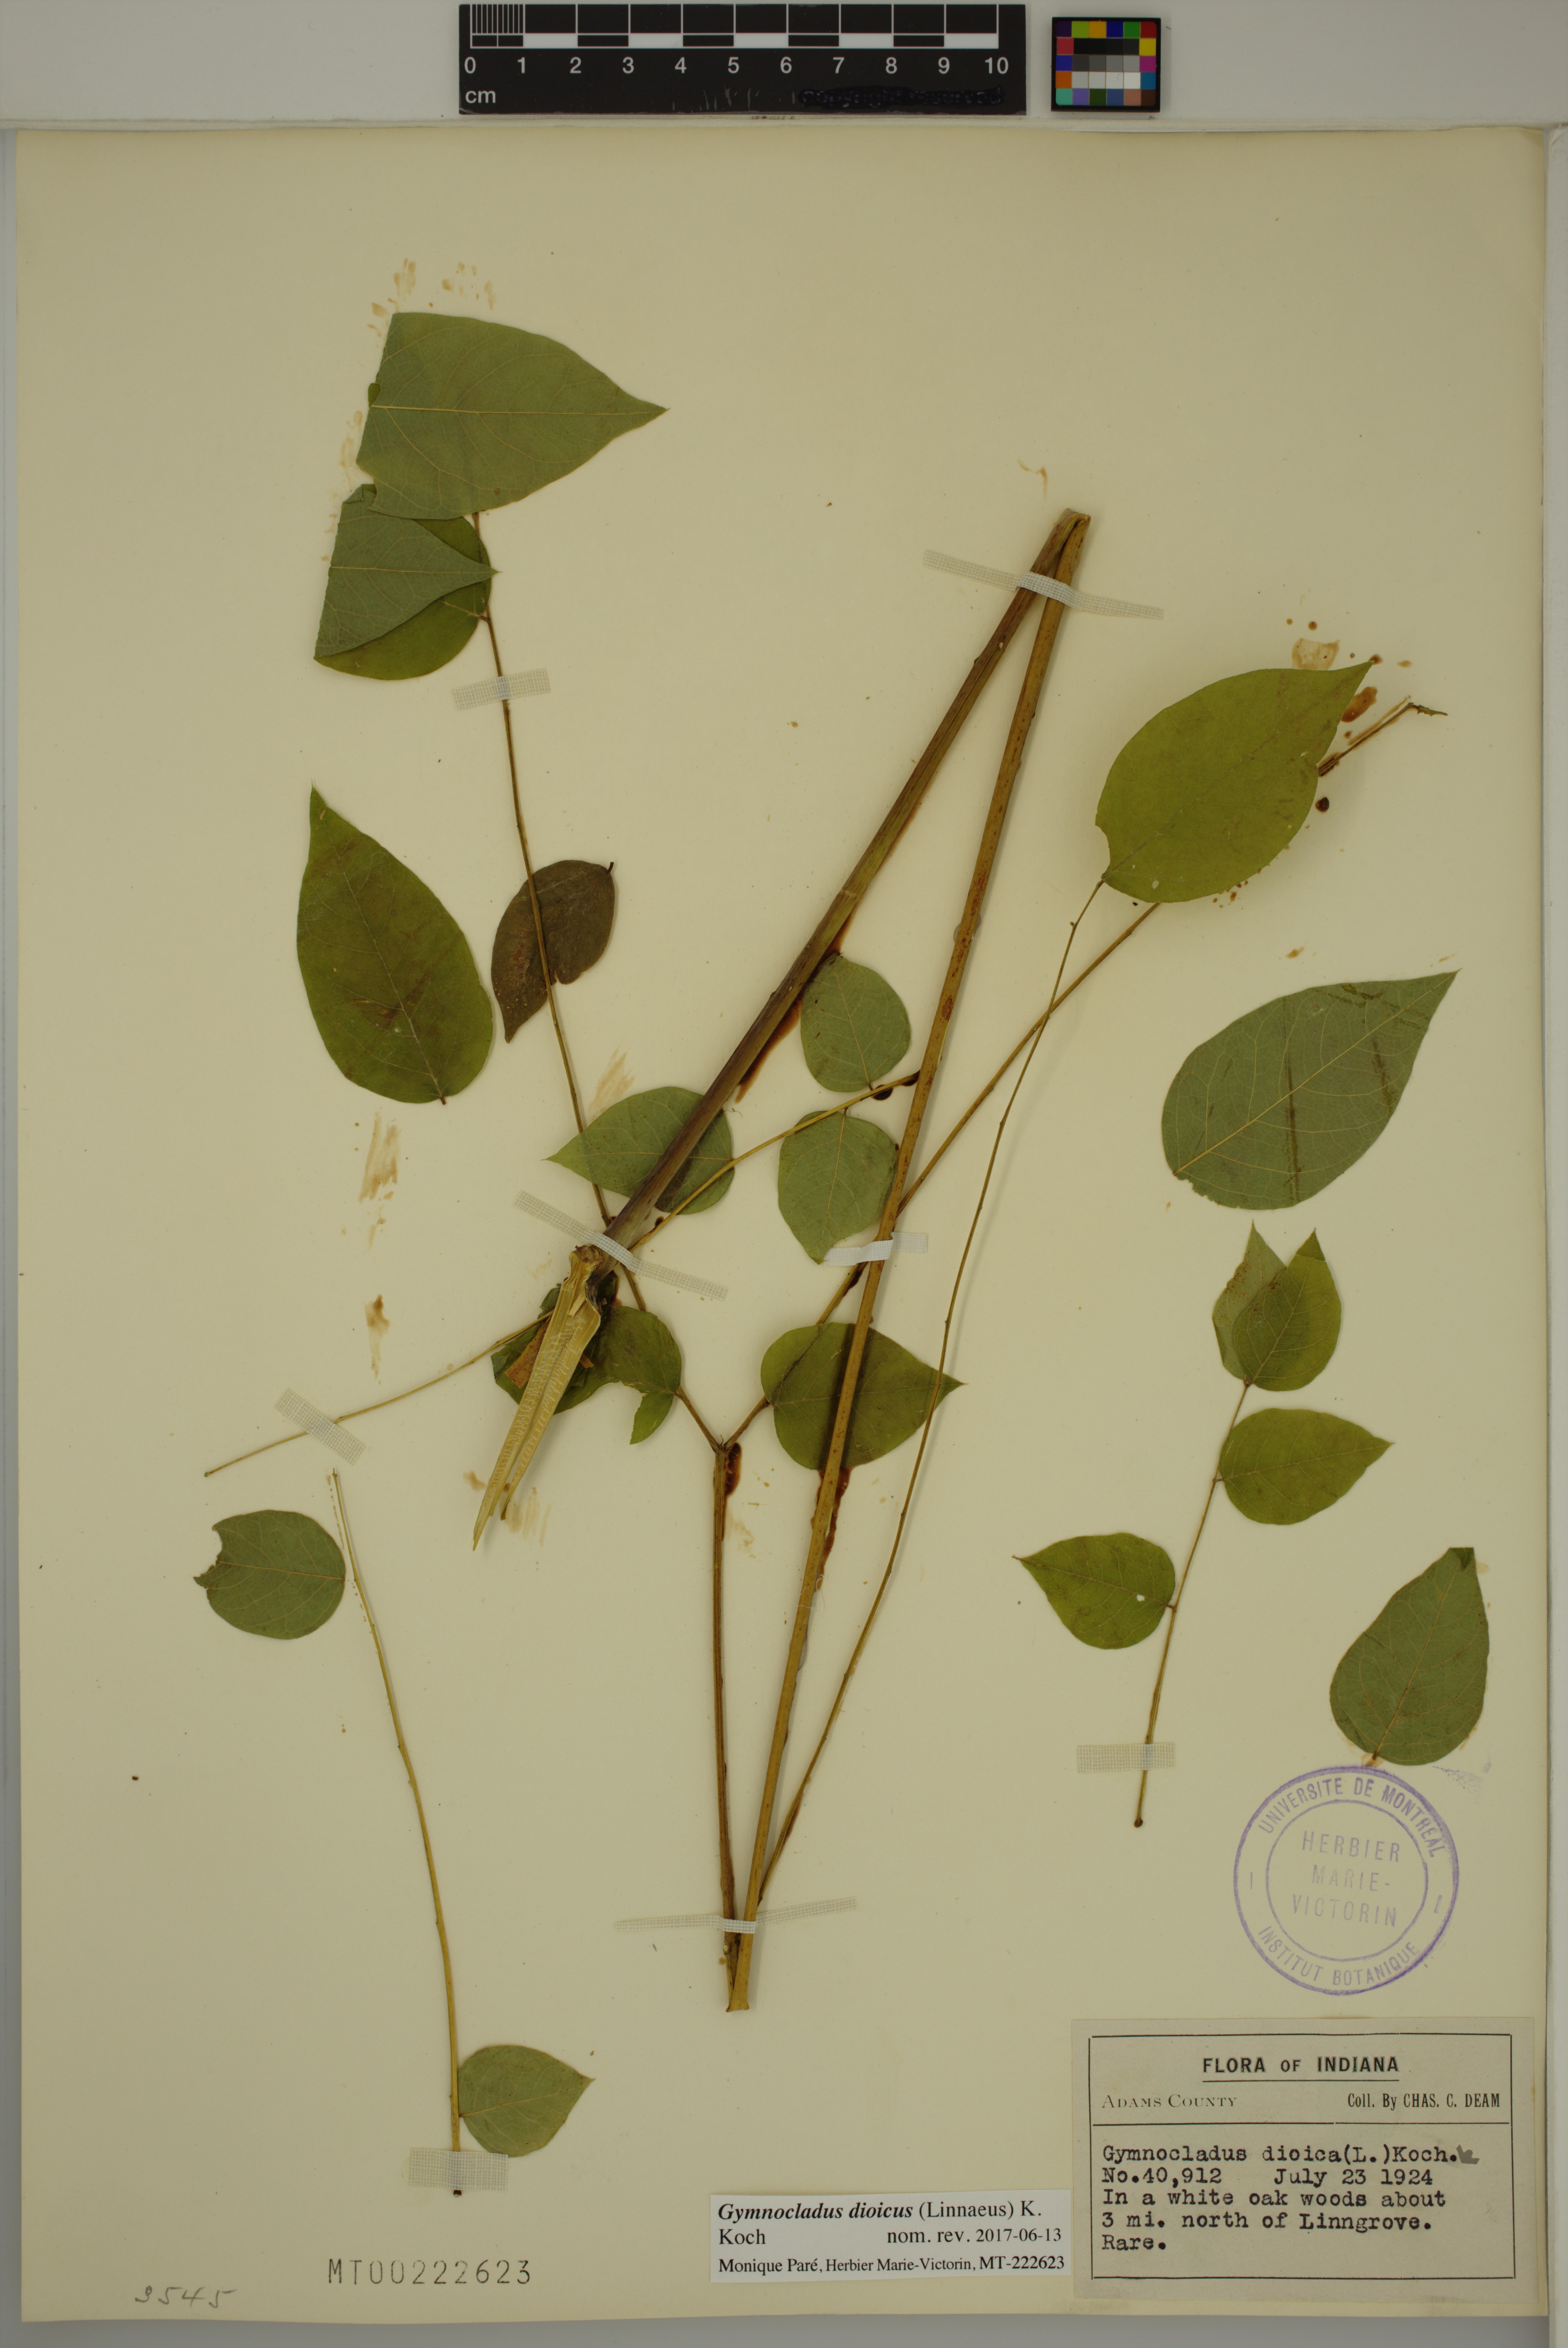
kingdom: Plantae
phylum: Tracheophyta
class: Magnoliopsida
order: Fabales
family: Fabaceae
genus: Gymnocladus
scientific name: Gymnocladus dioicus
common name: Kentucky coffee-tree
